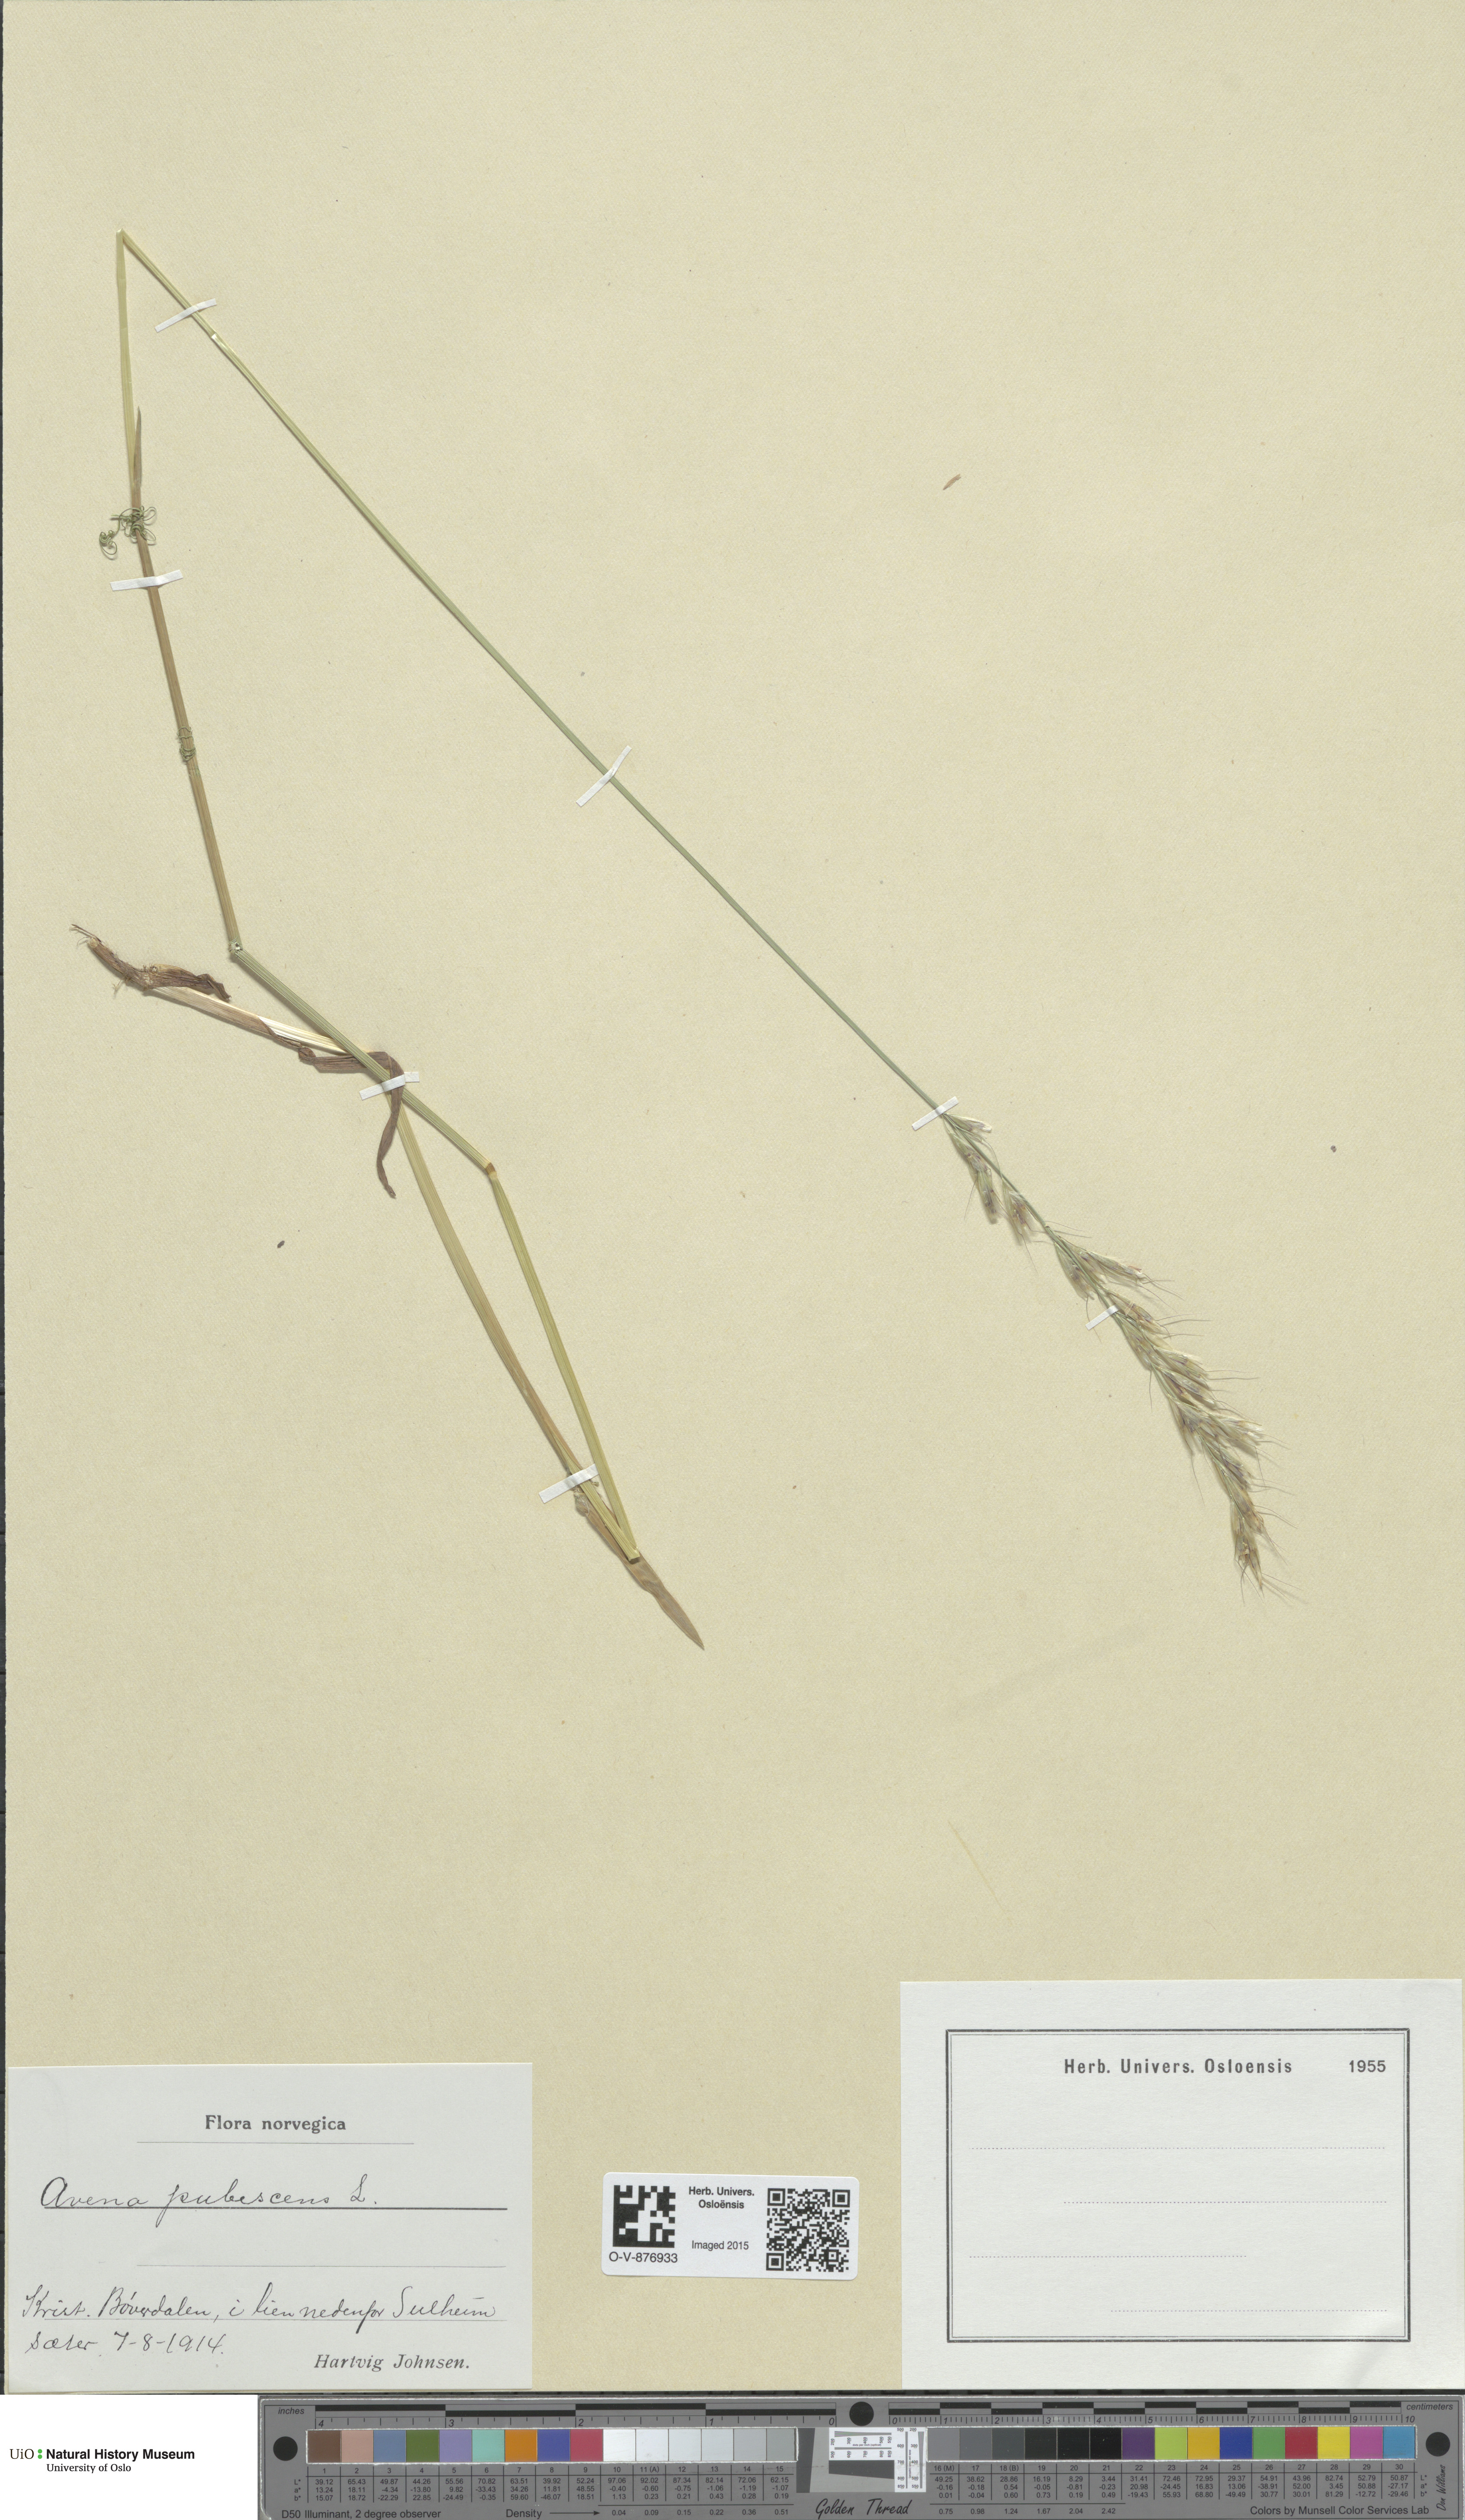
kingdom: Plantae
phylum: Tracheophyta
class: Liliopsida
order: Poales
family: Poaceae
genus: Avenula
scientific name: Avenula pubescens
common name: Downy alpine oatgrass
